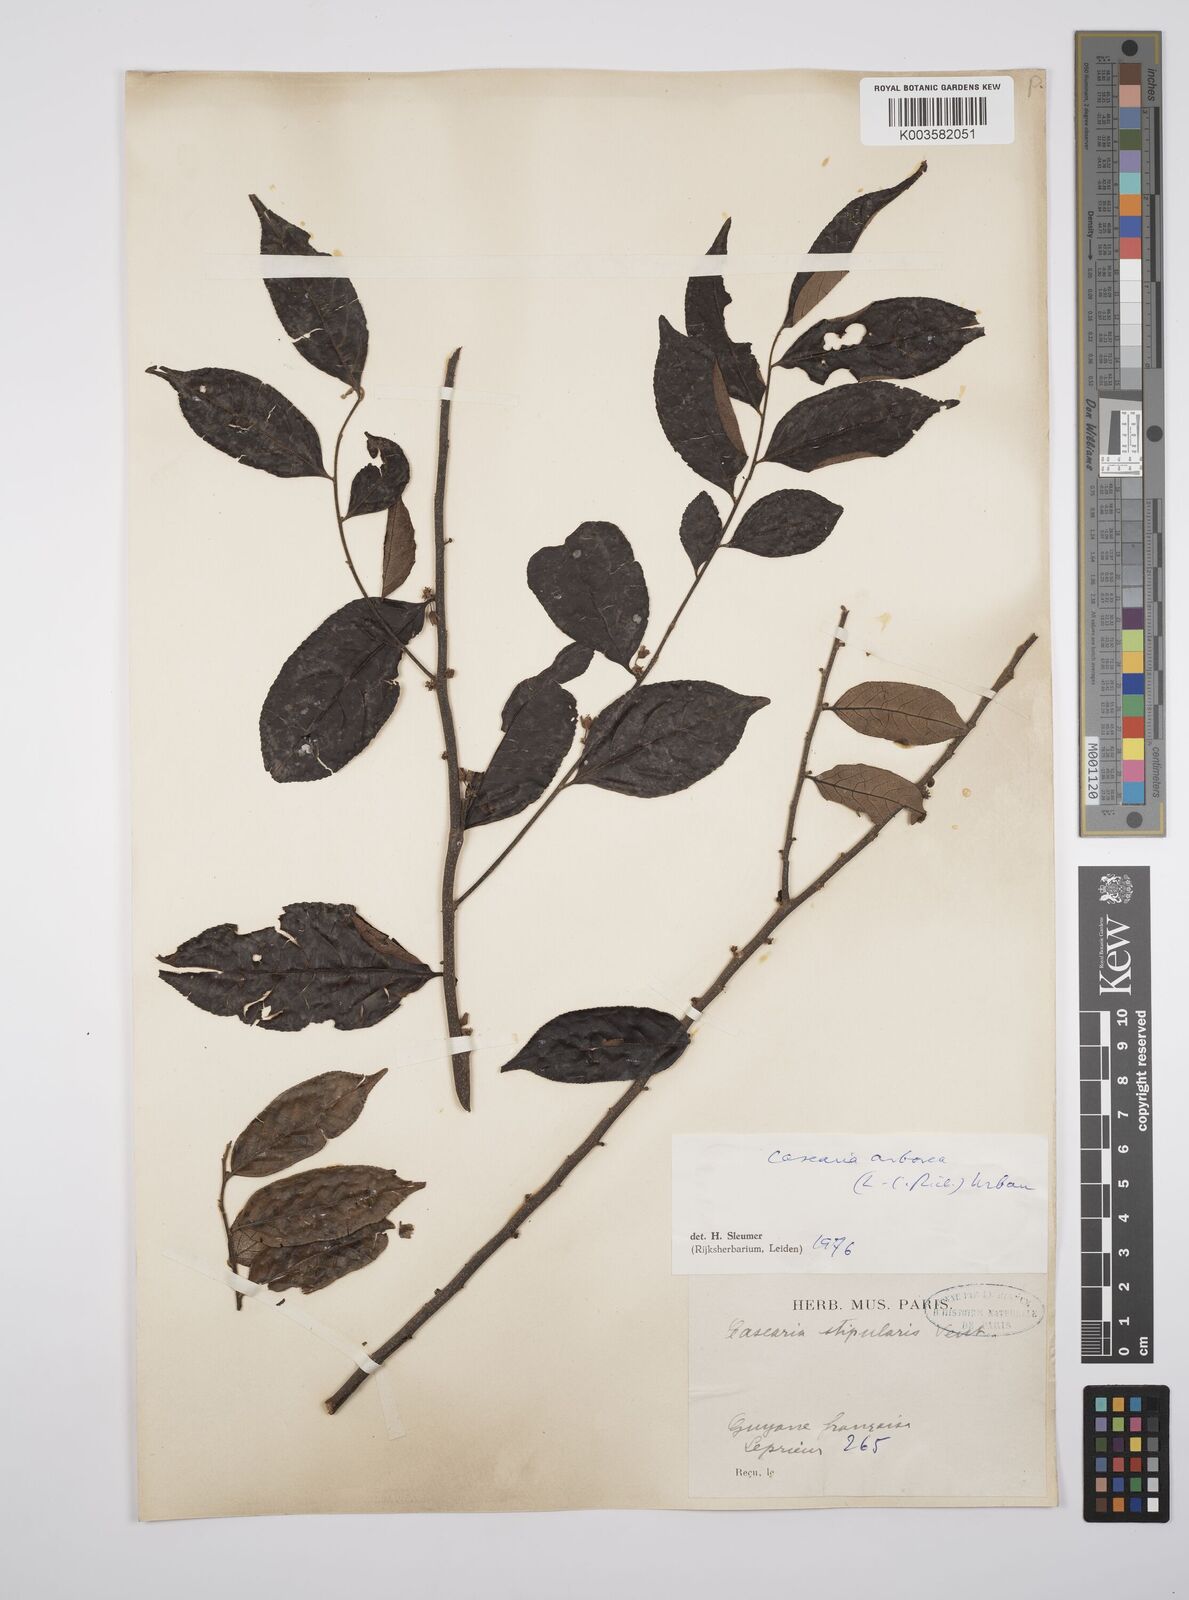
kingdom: Plantae
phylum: Tracheophyta
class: Magnoliopsida
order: Malpighiales
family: Salicaceae
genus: Casearia
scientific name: Casearia arborea
